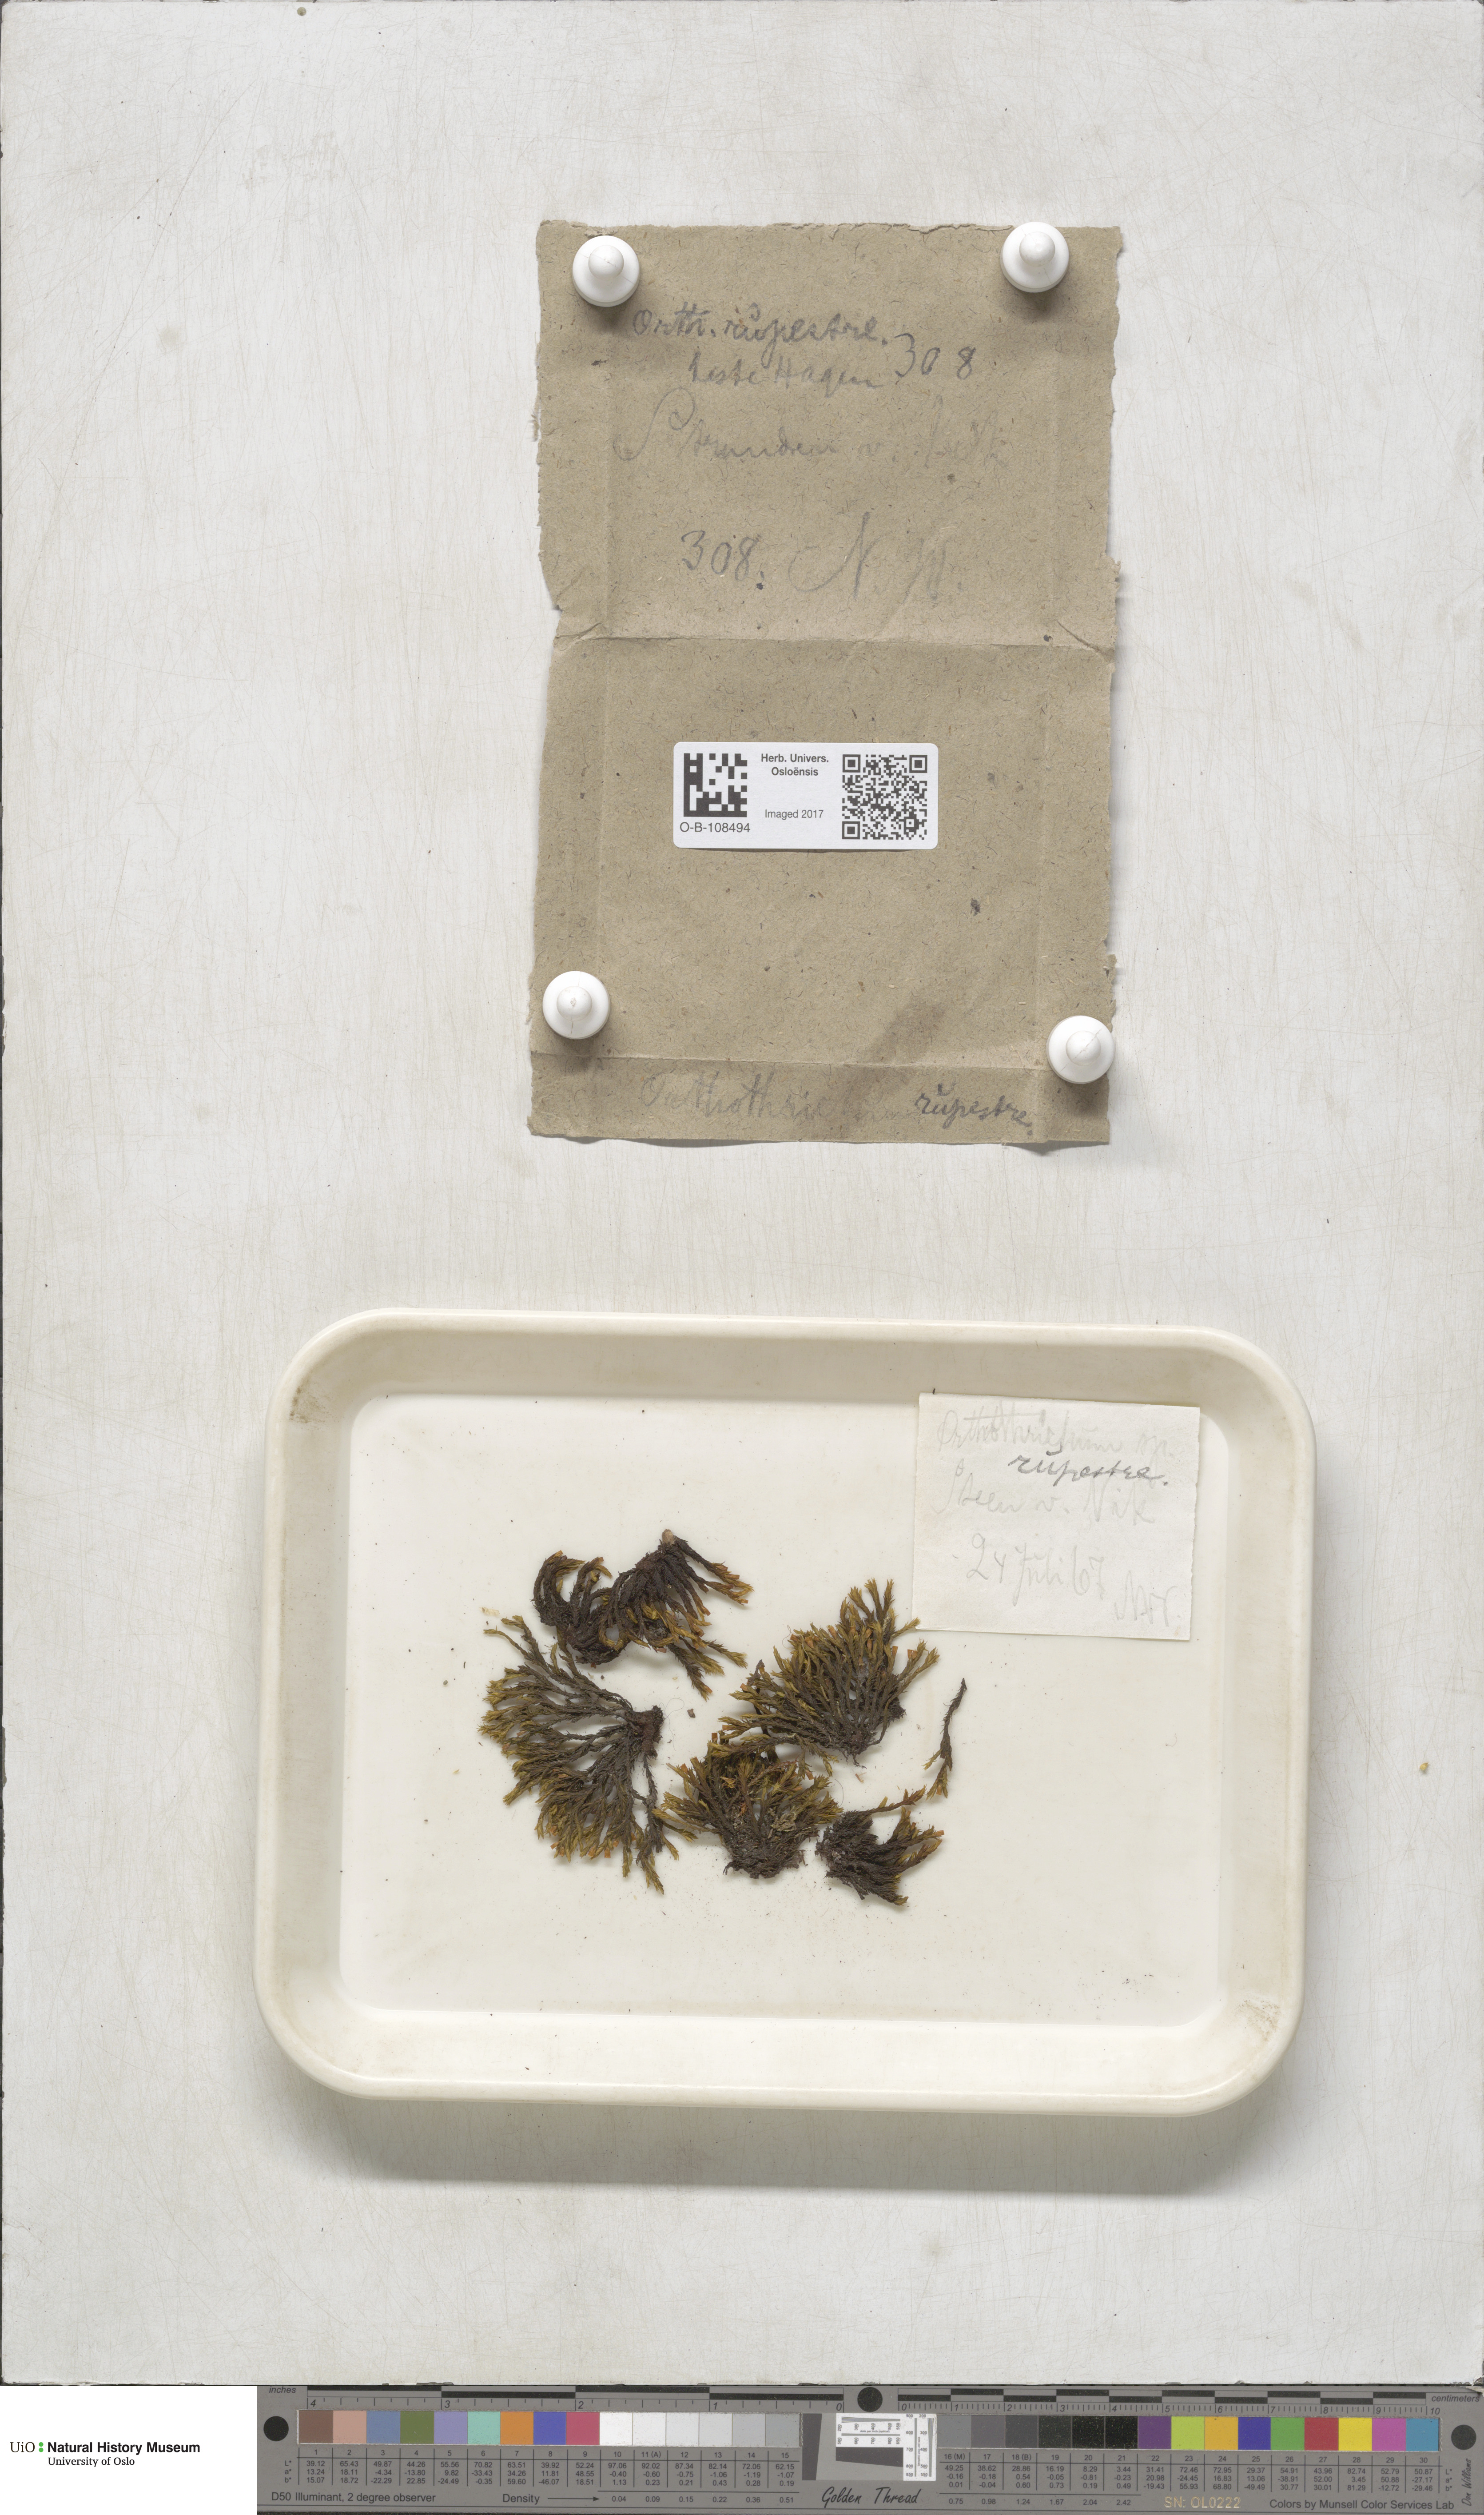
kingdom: Plantae
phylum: Bryophyta
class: Bryopsida
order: Orthotrichales
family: Orthotrichaceae
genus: Lewinskya
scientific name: Lewinskya rupestris
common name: Rock bristle-moss
